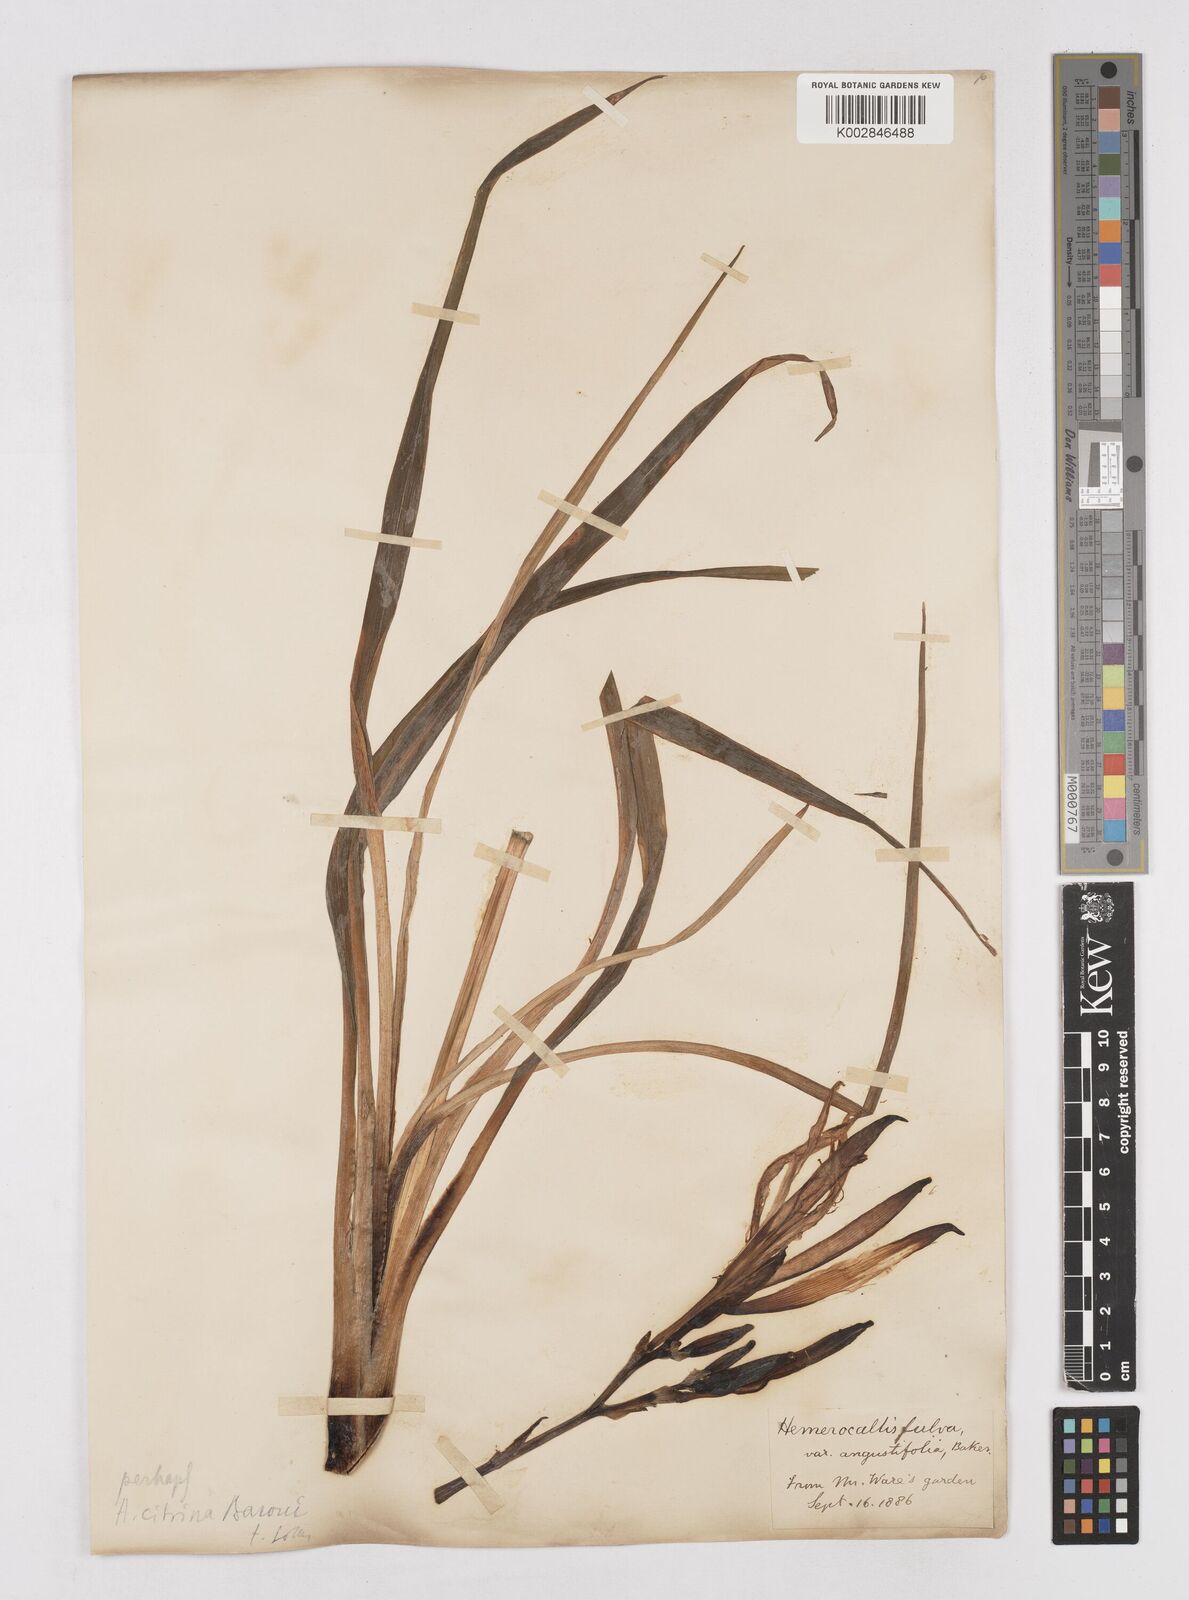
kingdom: Plantae
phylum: Tracheophyta
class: Liliopsida
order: Asparagales
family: Asphodelaceae
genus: Hemerocallis
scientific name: Hemerocallis lilioasphodelus
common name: Yellow day-lily
